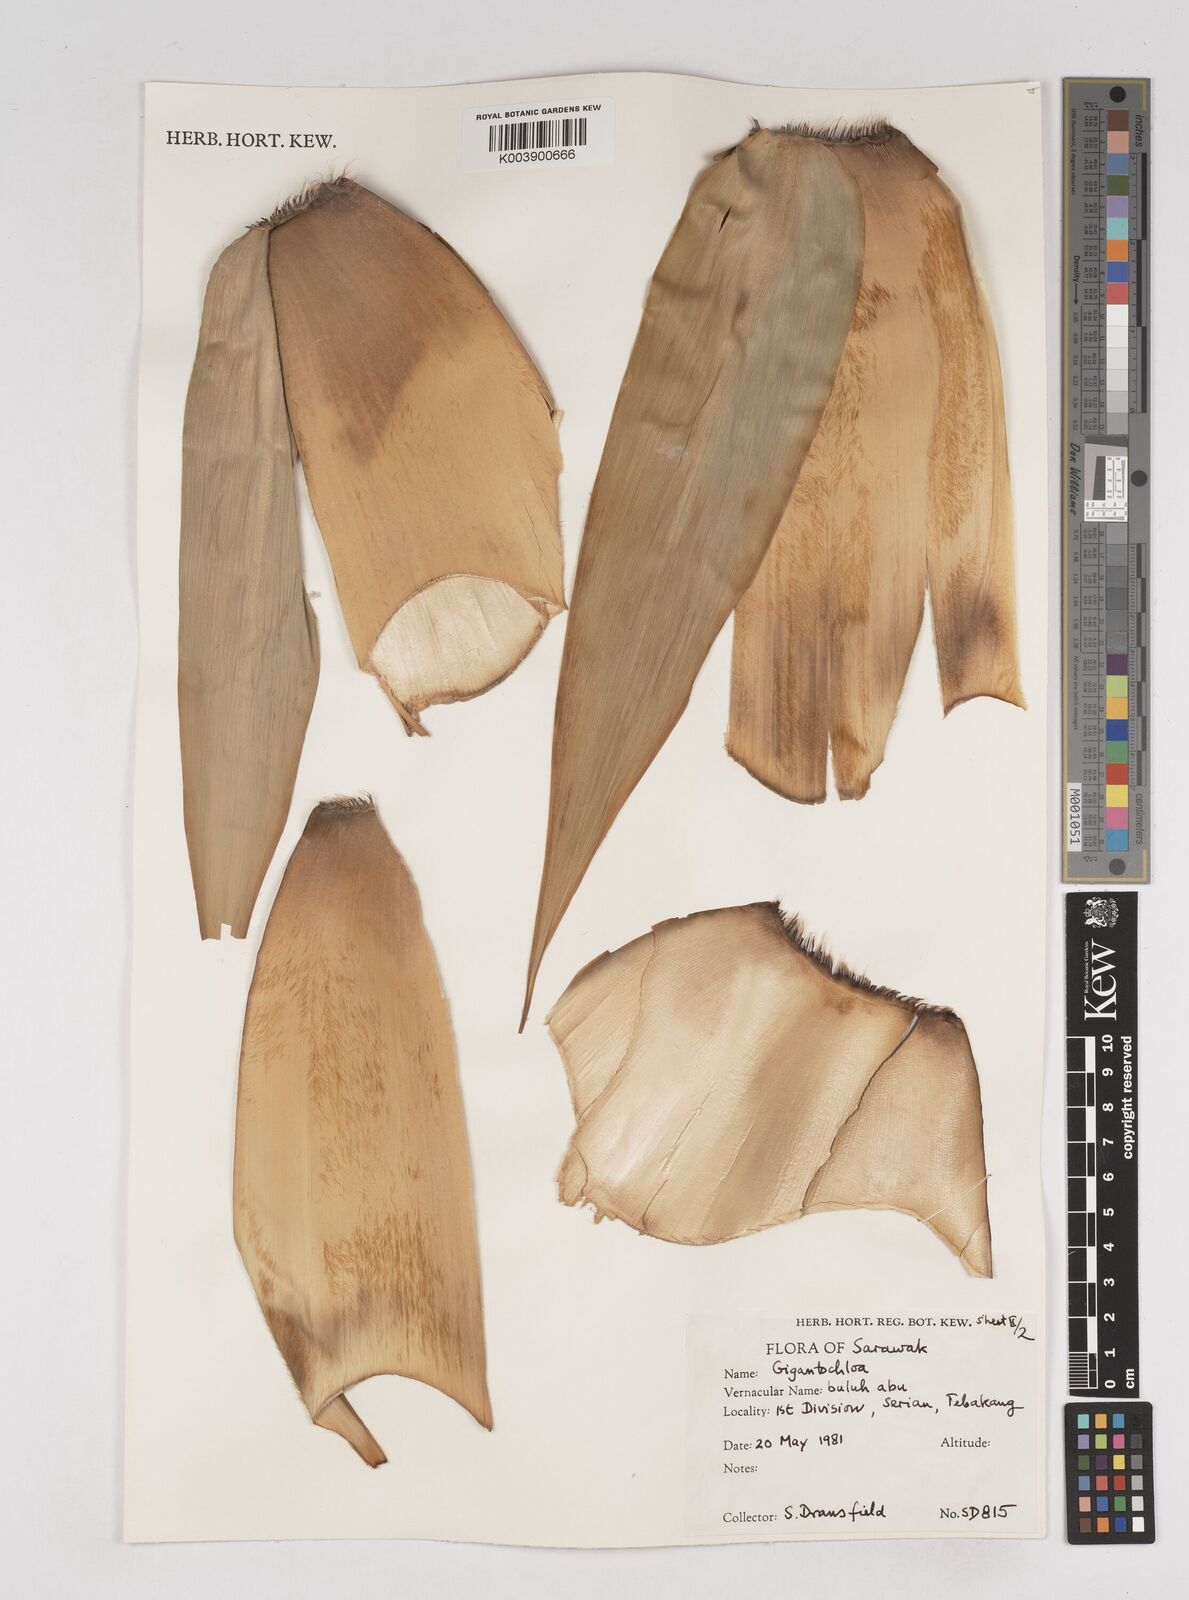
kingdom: Plantae
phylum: Tracheophyta
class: Liliopsida
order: Poales
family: Poaceae
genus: Gigantochloa
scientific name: Gigantochloa
